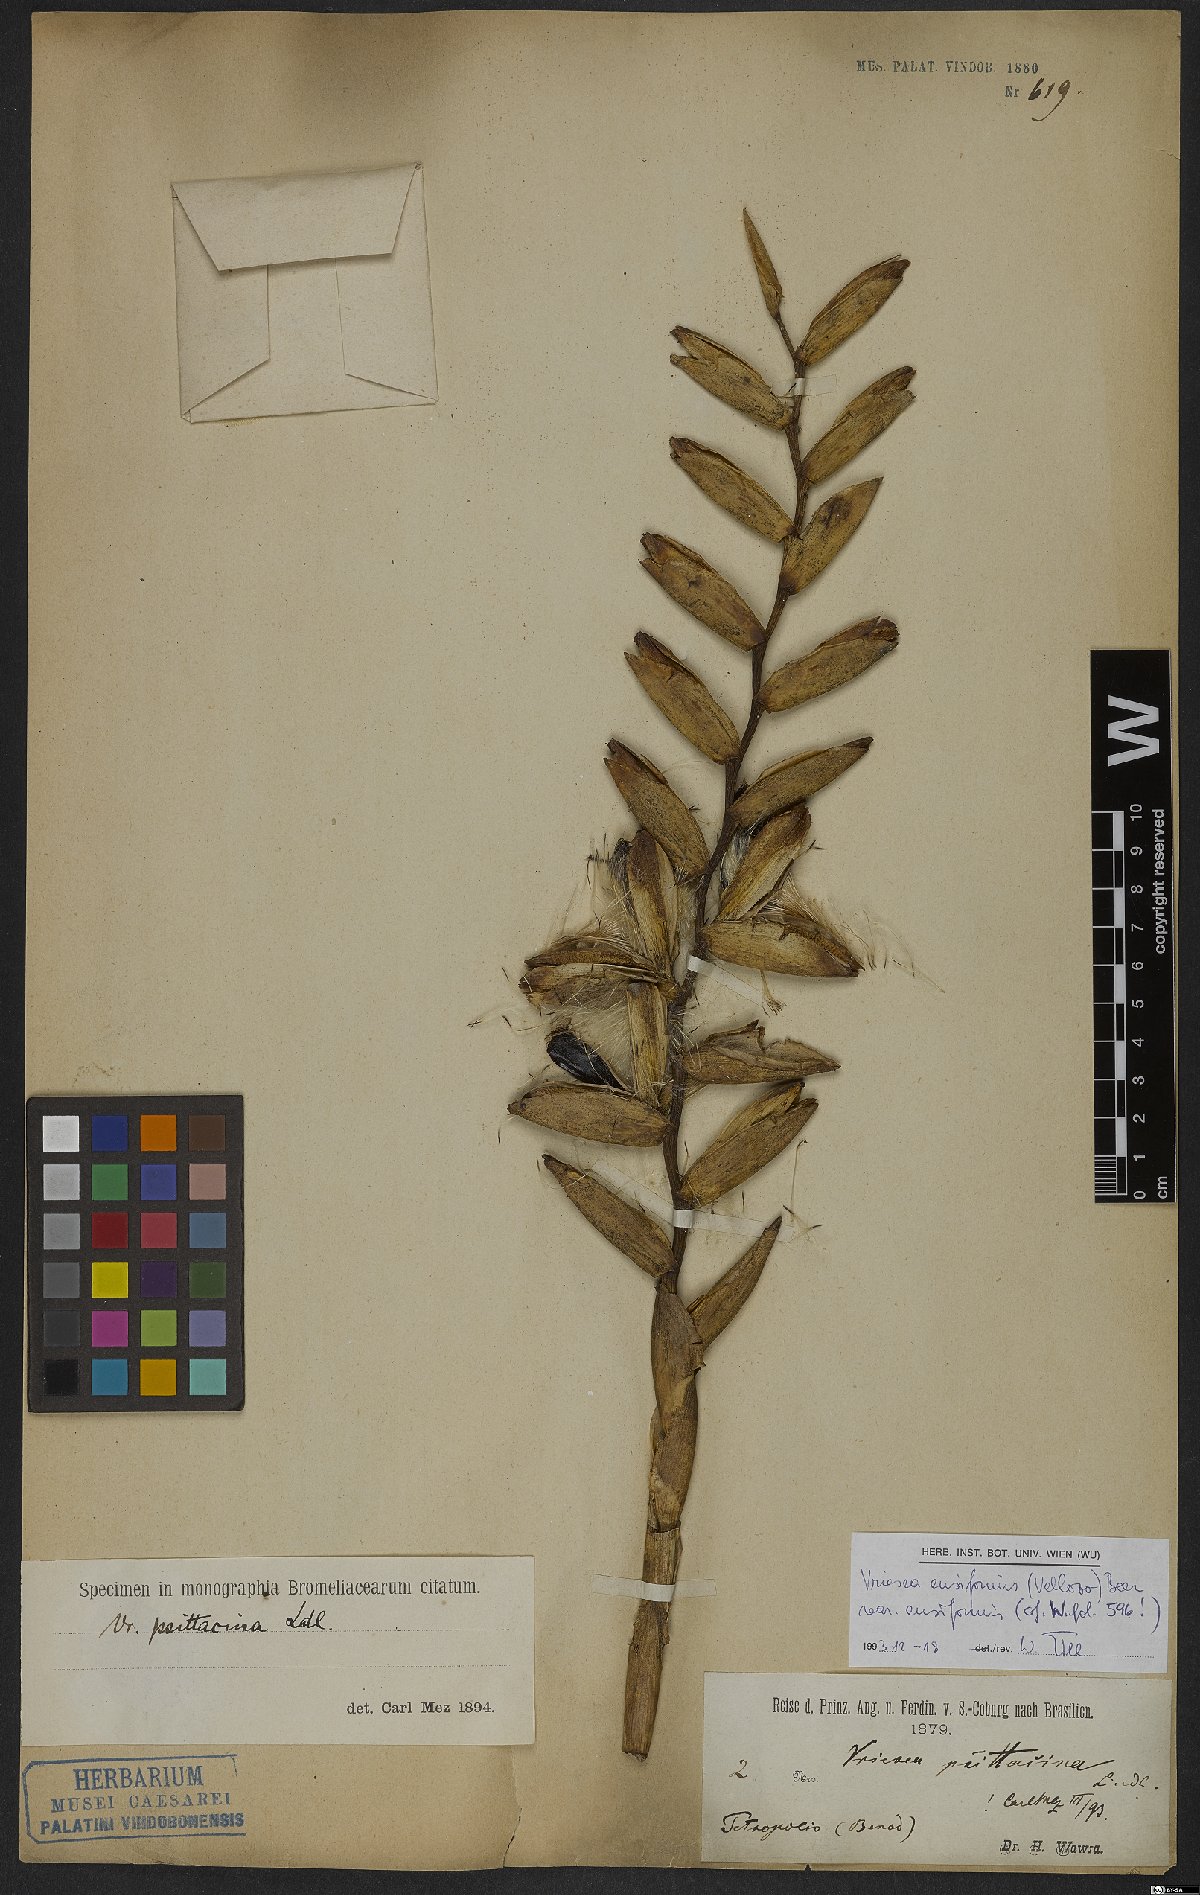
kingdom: Plantae
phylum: Tracheophyta
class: Liliopsida
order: Poales
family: Bromeliaceae
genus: Vriesea
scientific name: Vriesea ensiformis
